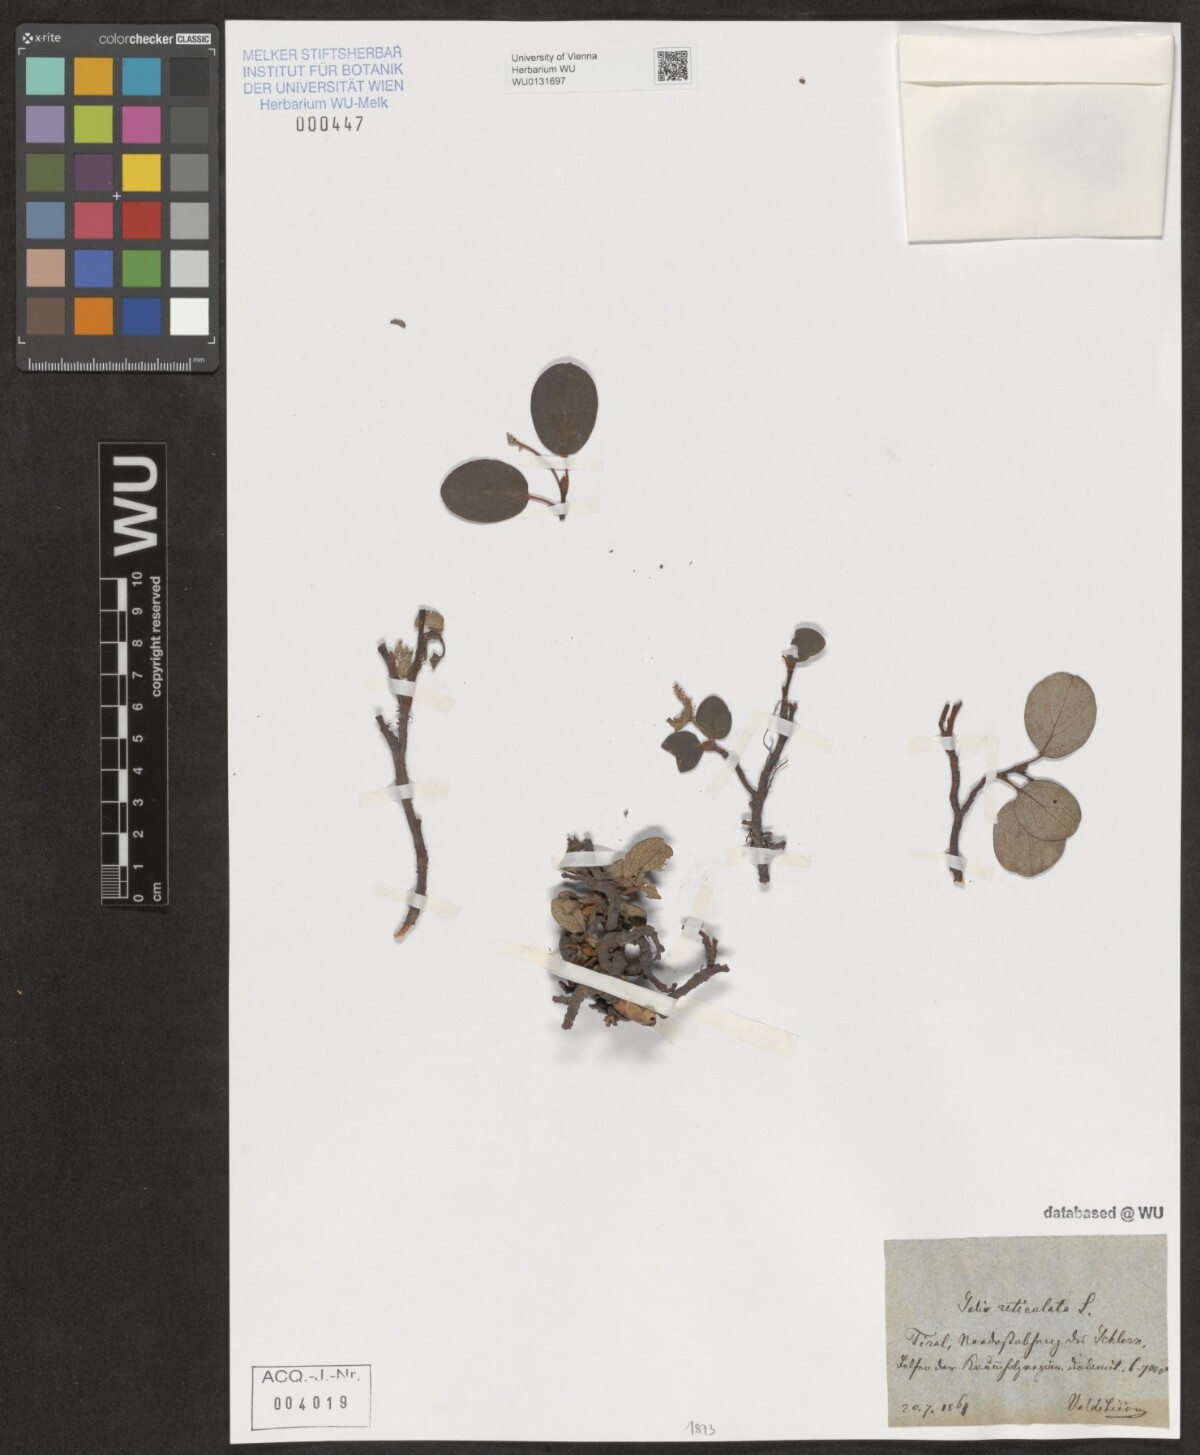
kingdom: Plantae
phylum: Tracheophyta
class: Magnoliopsida
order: Malpighiales
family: Salicaceae
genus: Salix
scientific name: Salix reticulata
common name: Net-leaved willow
